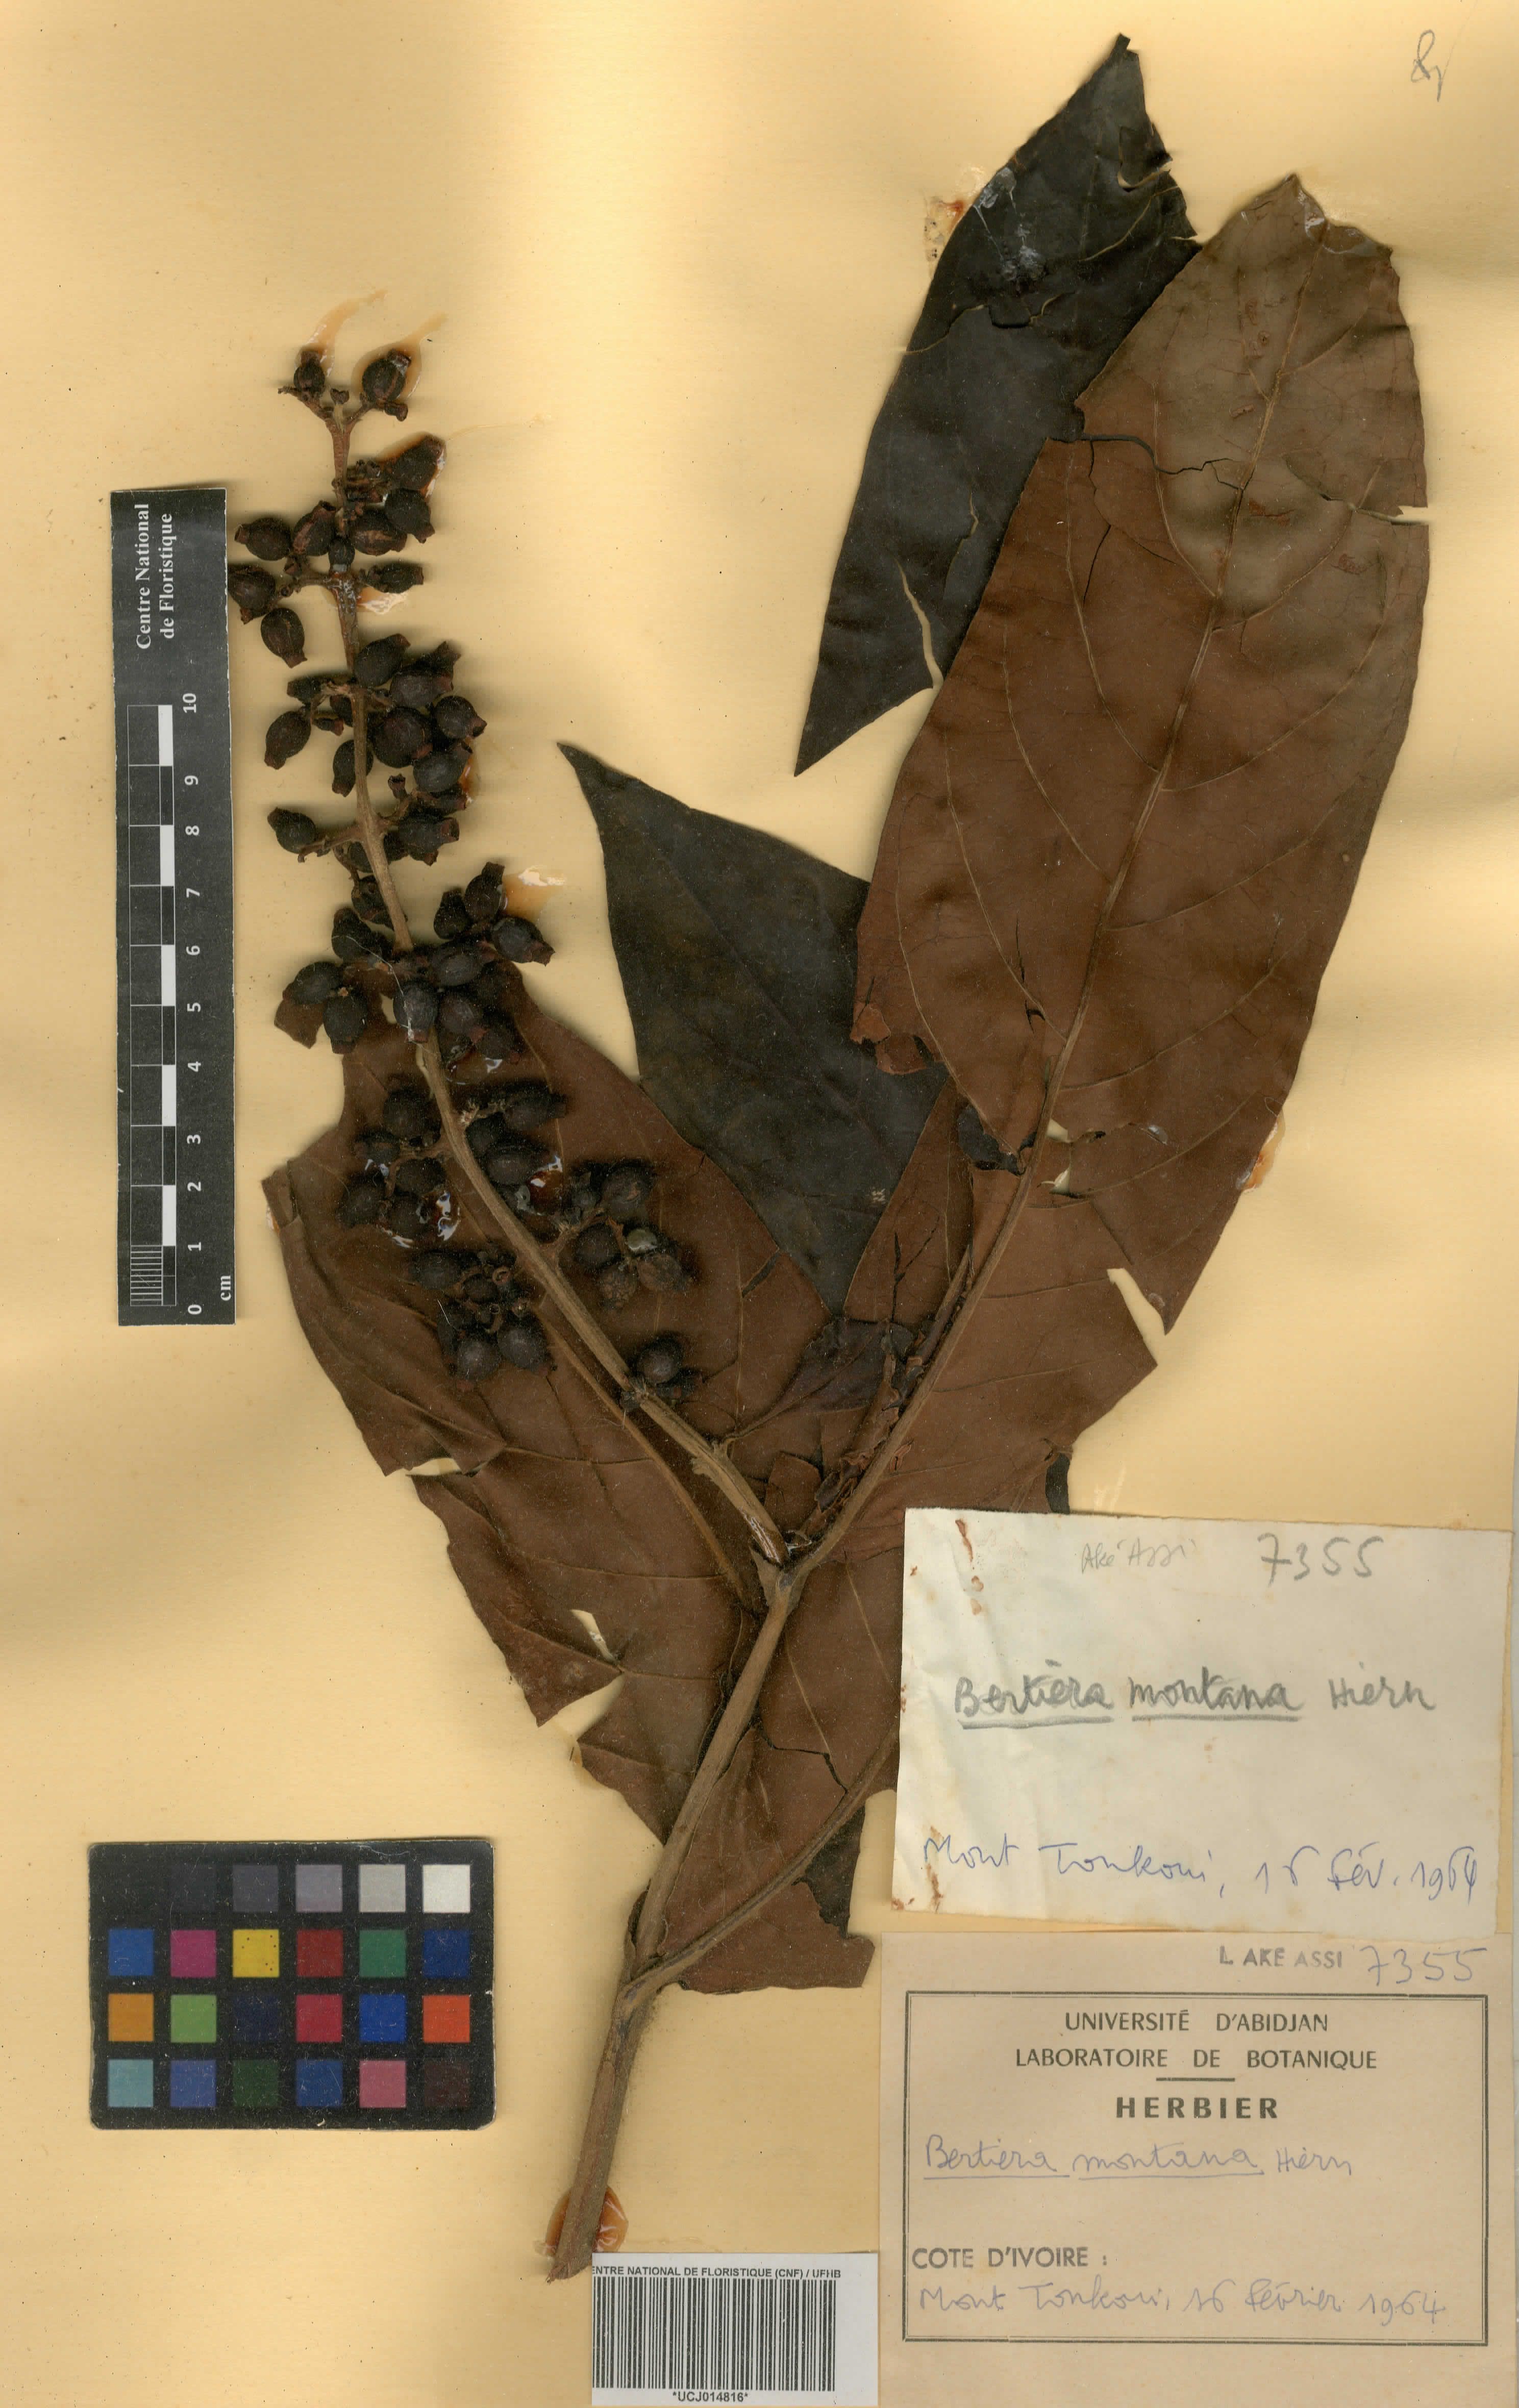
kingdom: Plantae
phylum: Tracheophyta
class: Magnoliopsida
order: Gentianales
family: Rubiaceae
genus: Bertiera
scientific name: Bertiera racemosa
